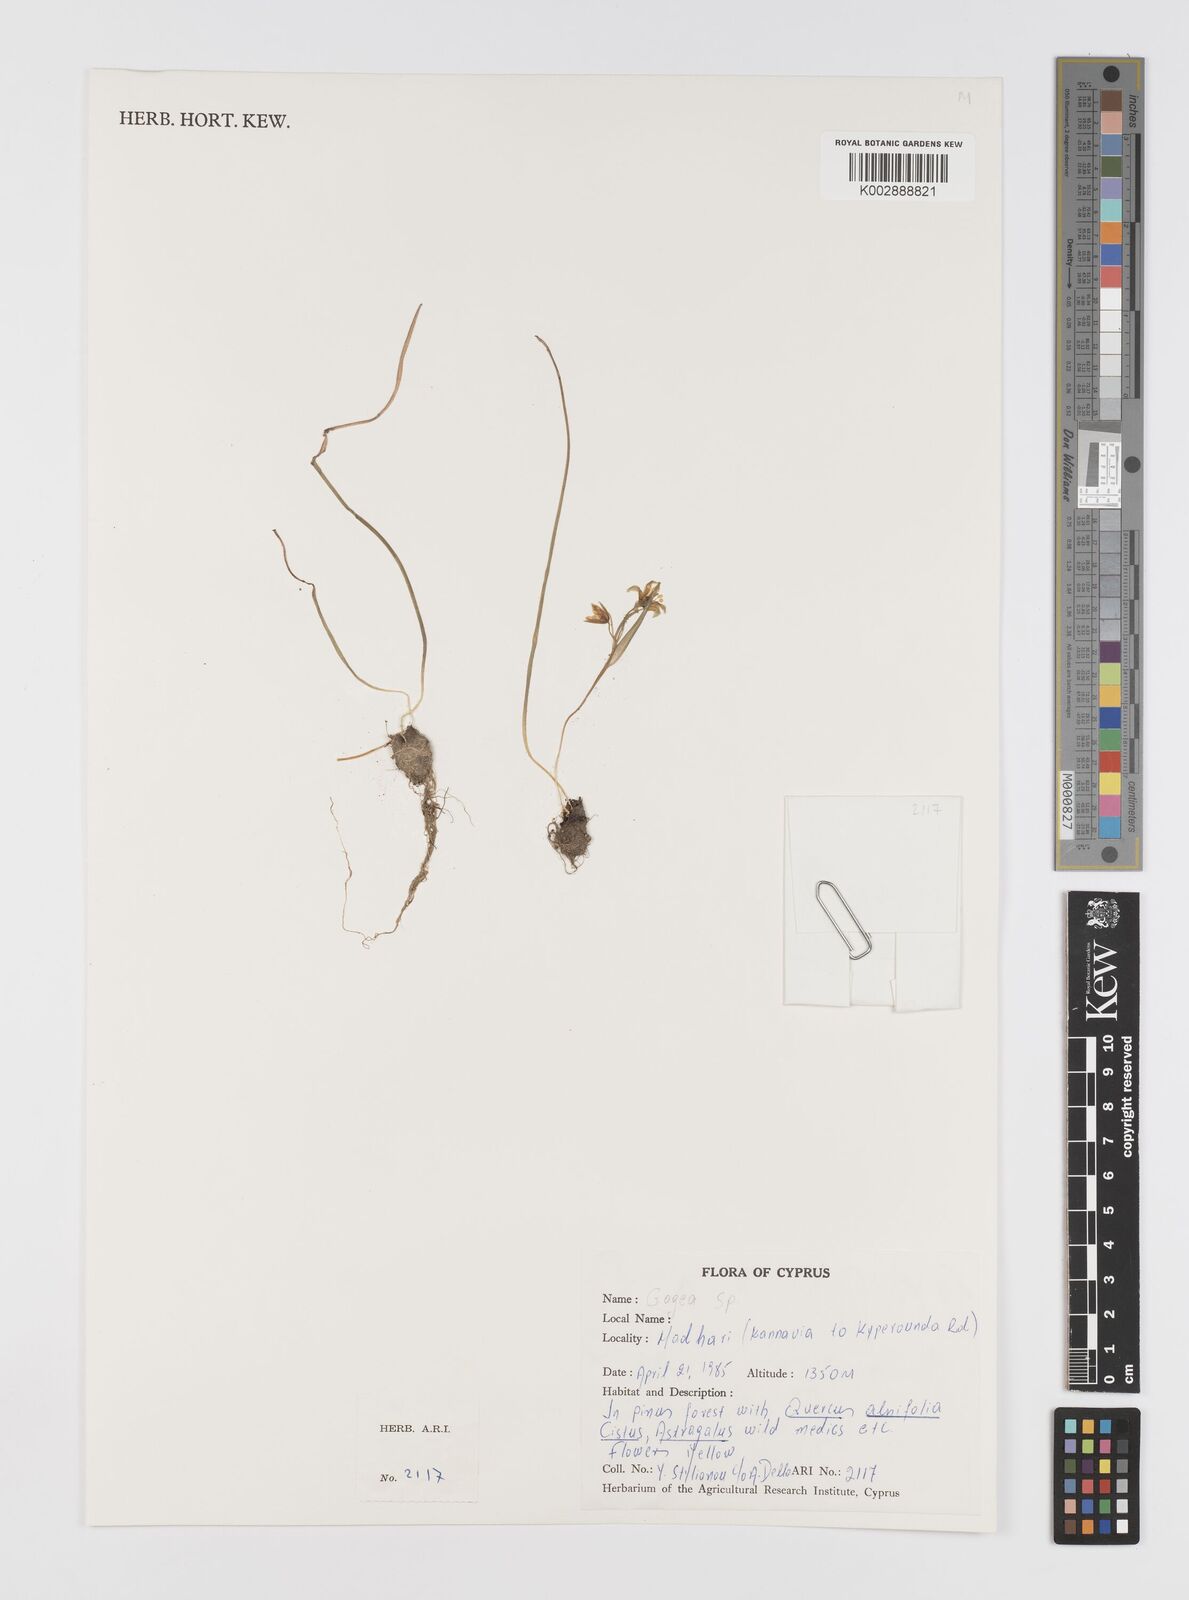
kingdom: Plantae
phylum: Tracheophyta
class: Liliopsida
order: Liliales
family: Liliaceae
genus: Gagea
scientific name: Gagea
